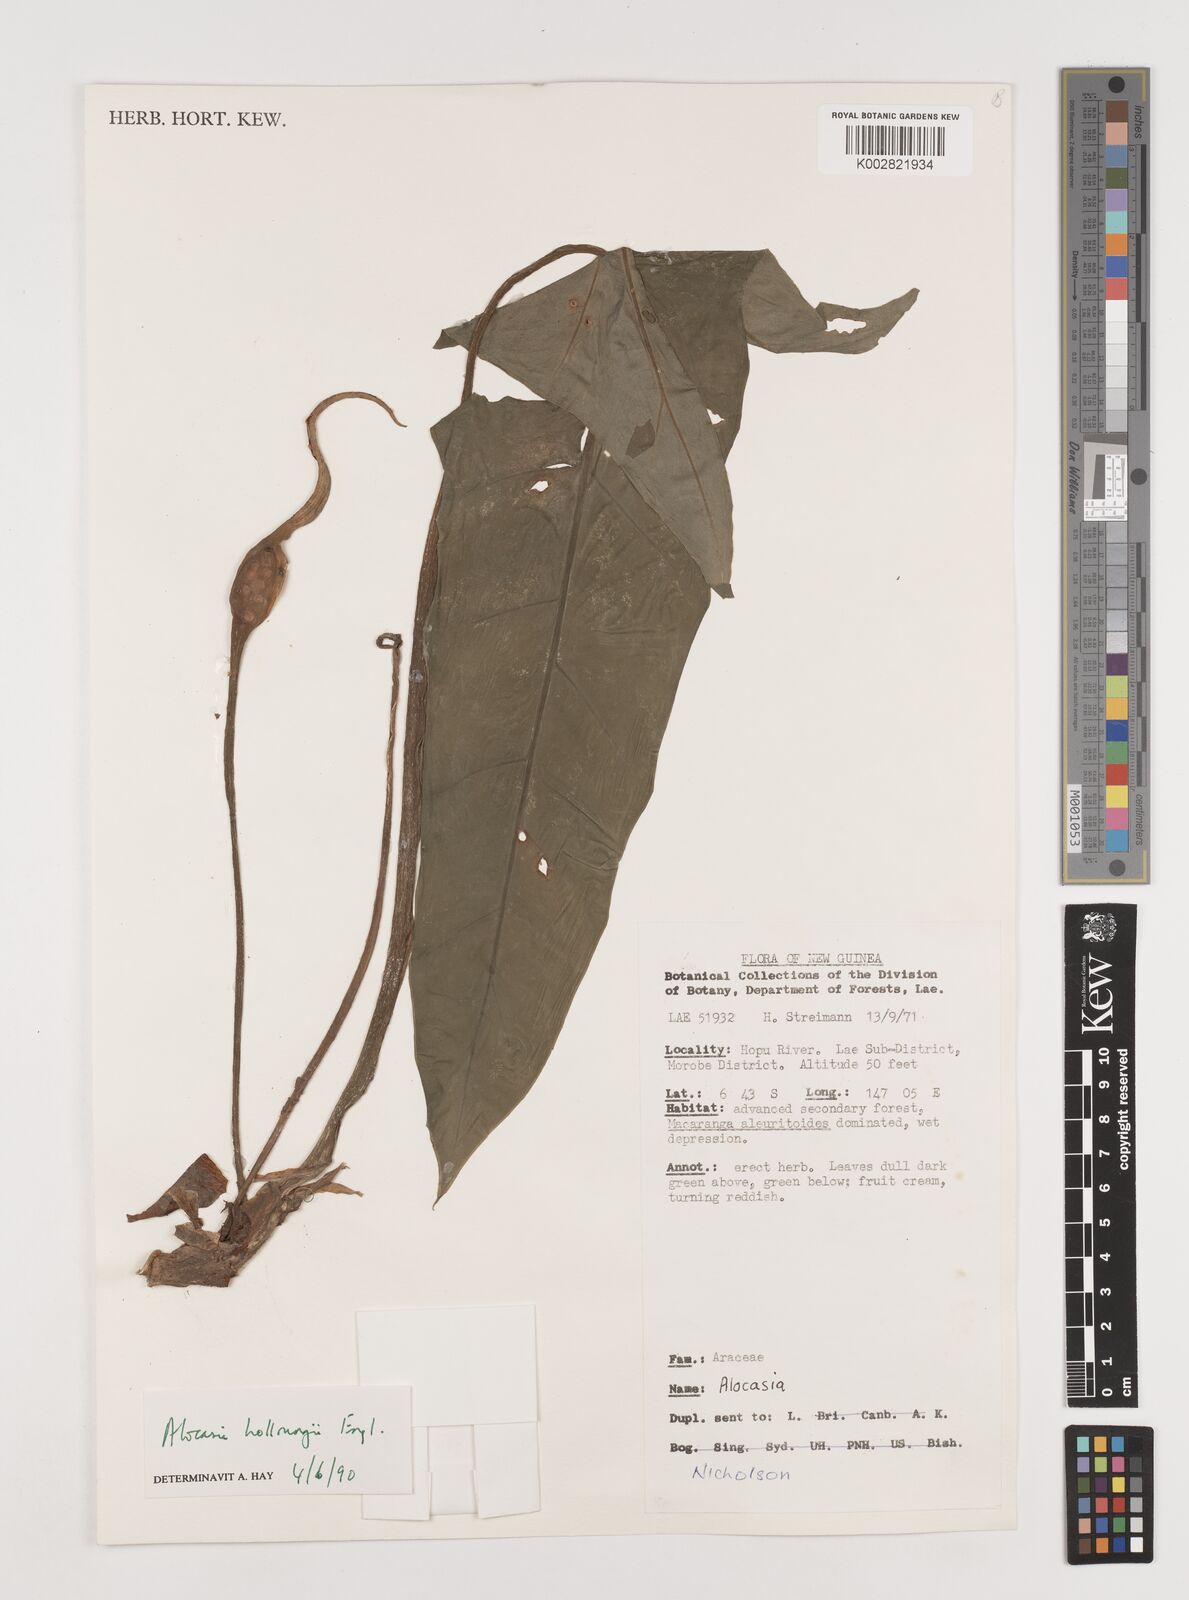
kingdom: Plantae
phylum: Tracheophyta
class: Liliopsida
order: Alismatales
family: Araceae
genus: Alocasia
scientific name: Alocasia hollrungii
